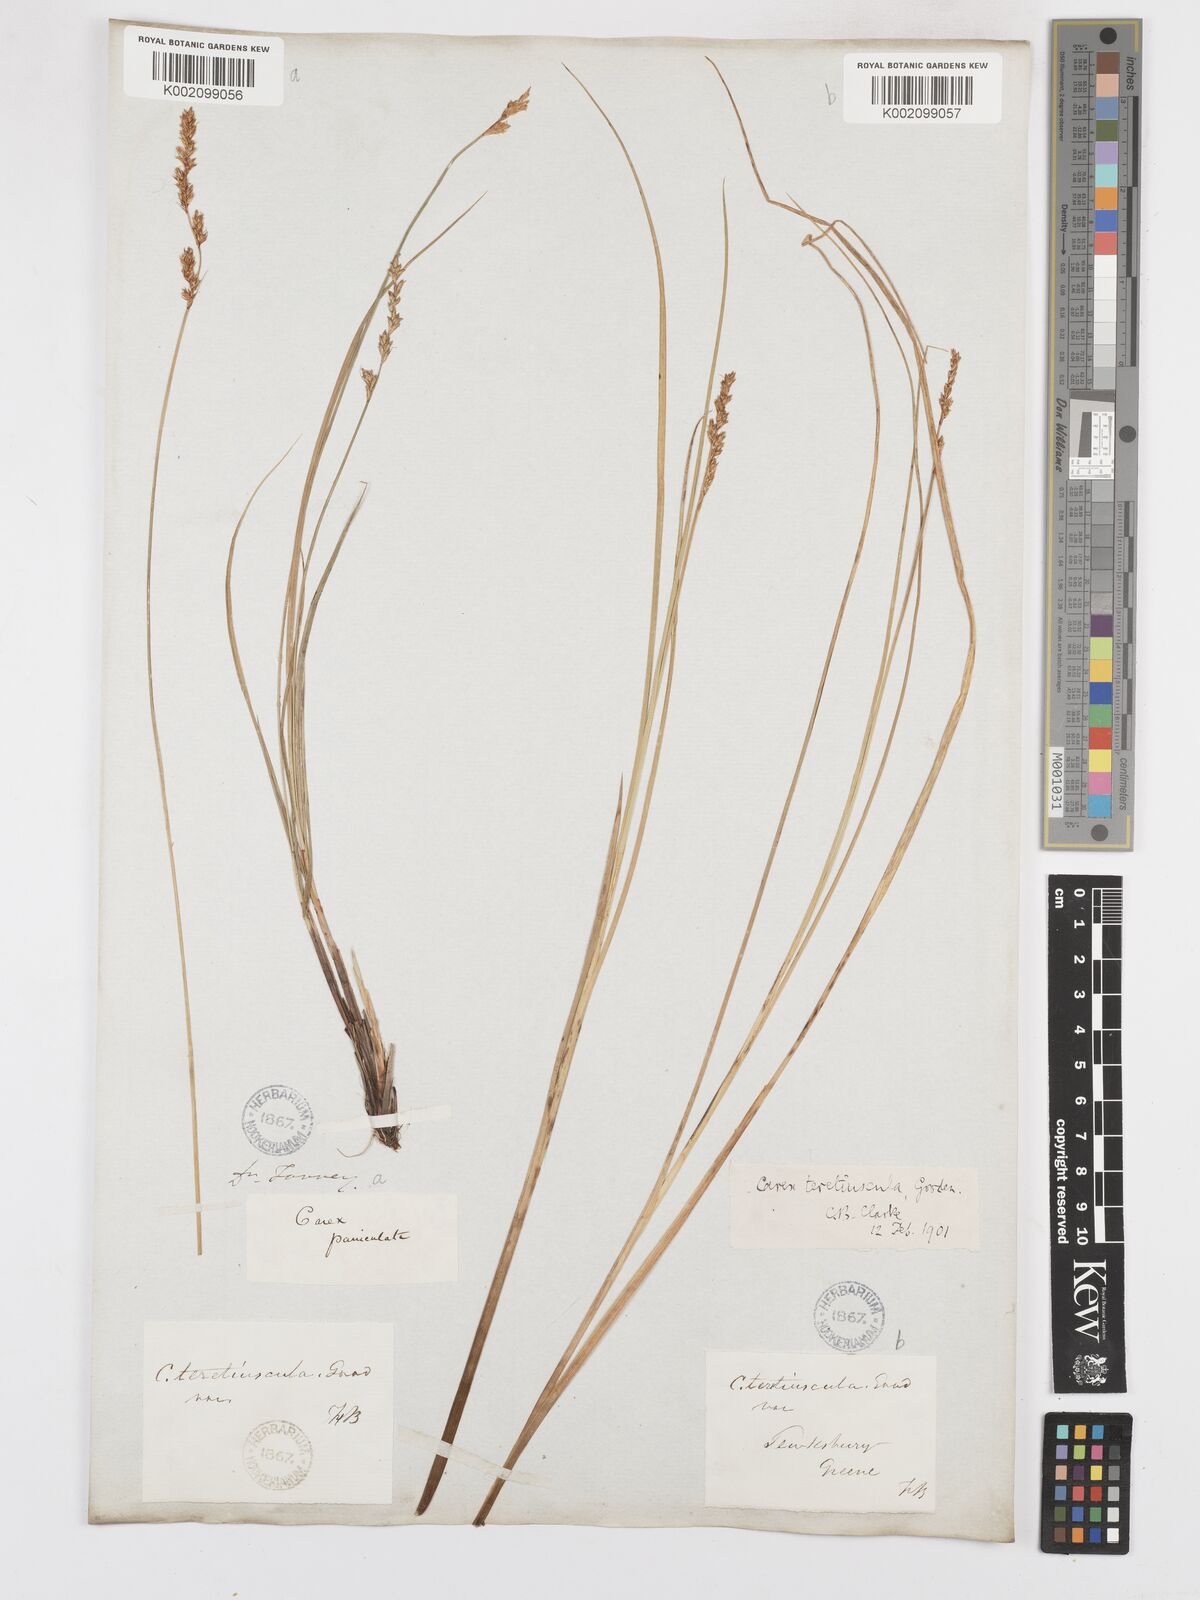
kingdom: Plantae
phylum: Tracheophyta
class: Liliopsida
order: Poales
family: Cyperaceae
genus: Carex
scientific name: Carex diandra
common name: Lesser tussock-sedge
